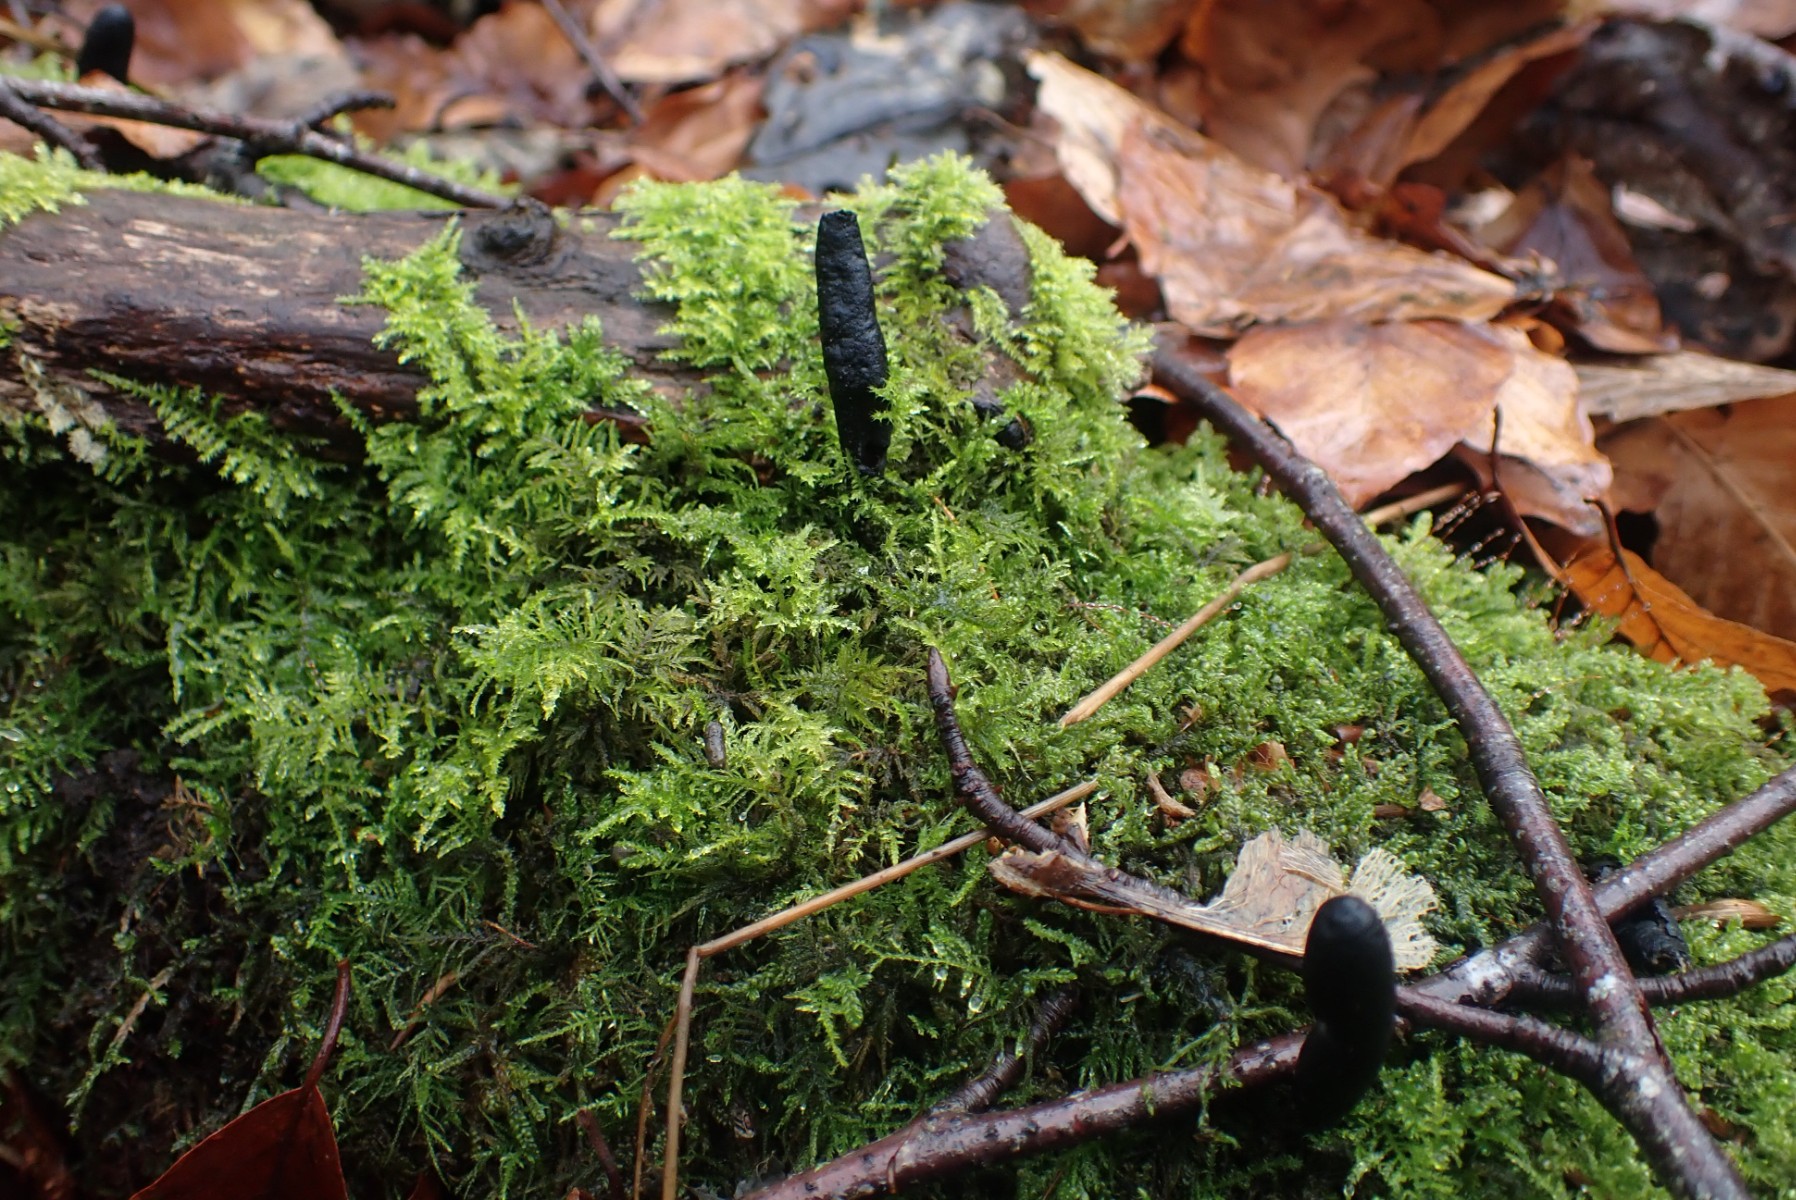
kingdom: Fungi
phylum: Ascomycota
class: Sordariomycetes
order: Xylariales
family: Xylariaceae
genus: Xylaria
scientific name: Xylaria longipes
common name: slank stødsvamp
